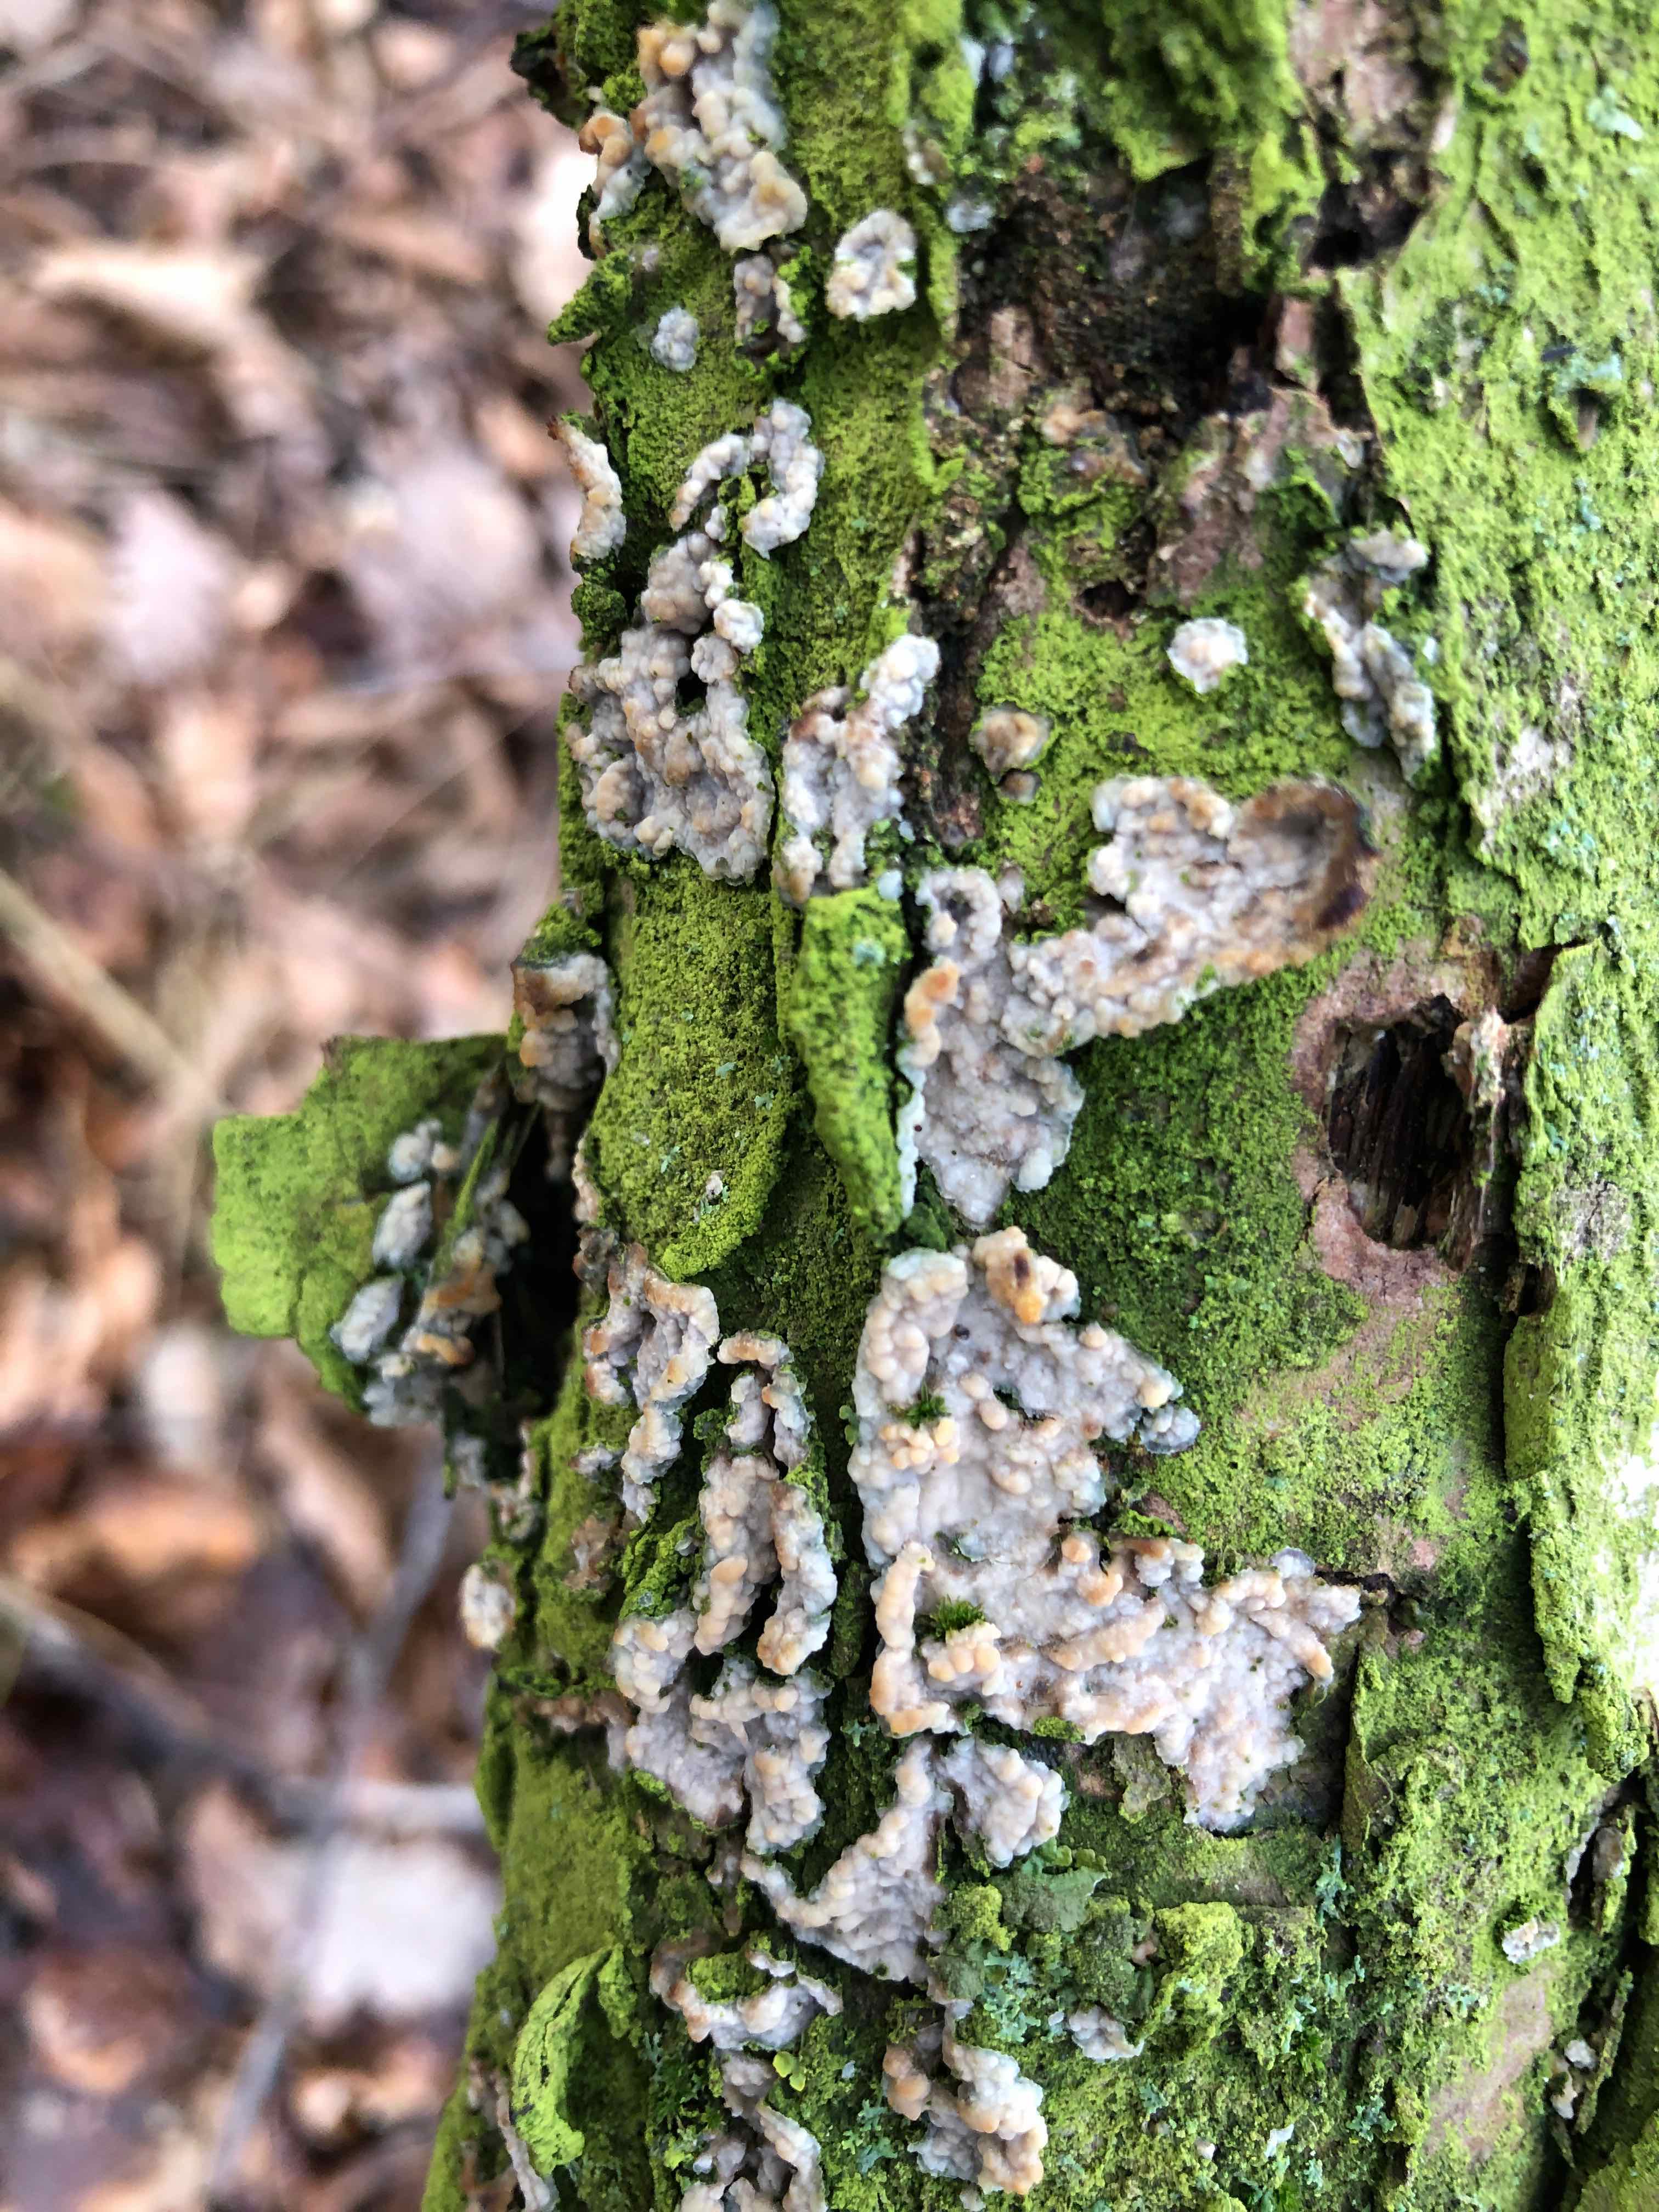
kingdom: Fungi
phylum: Basidiomycota
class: Agaricomycetes
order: Polyporales
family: Meruliaceae
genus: Phlebia
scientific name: Phlebia radiata
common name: stråle-åresvamp
